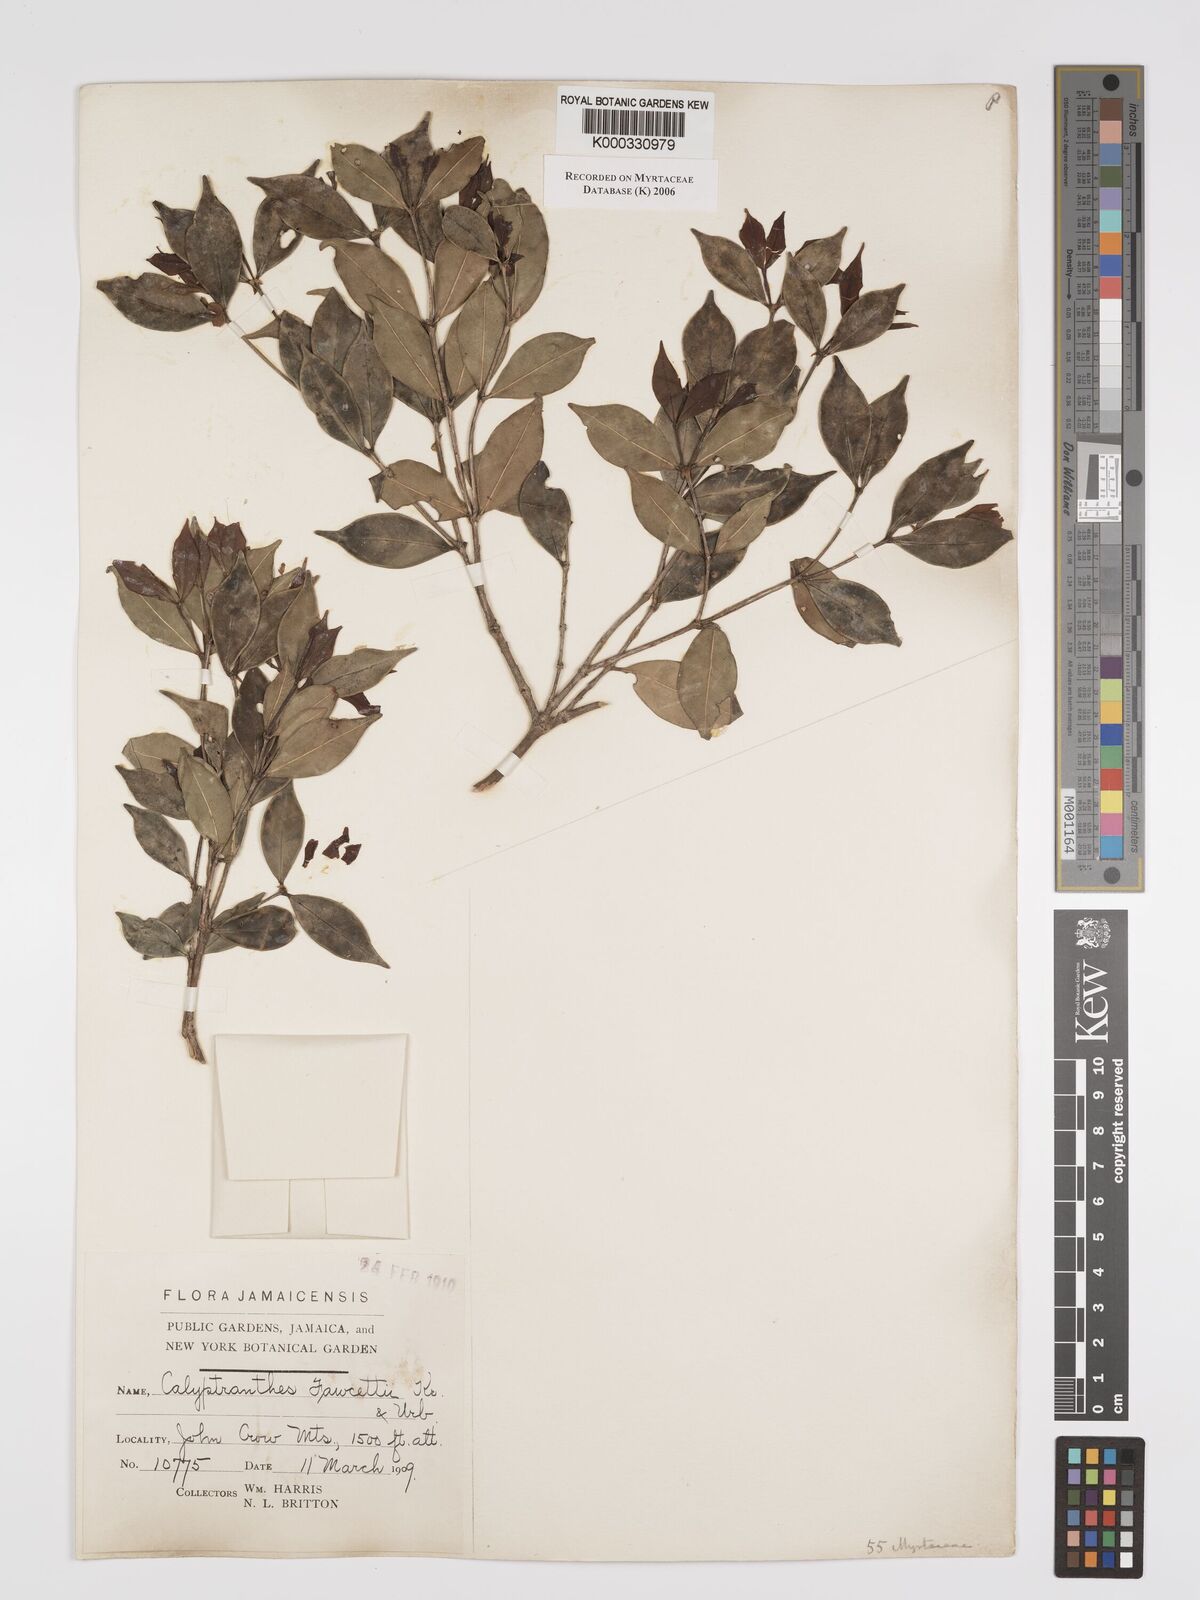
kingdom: Plantae
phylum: Tracheophyta
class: Magnoliopsida
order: Myrtales
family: Myrtaceae
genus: Myrcia
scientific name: Myrcia rigida
